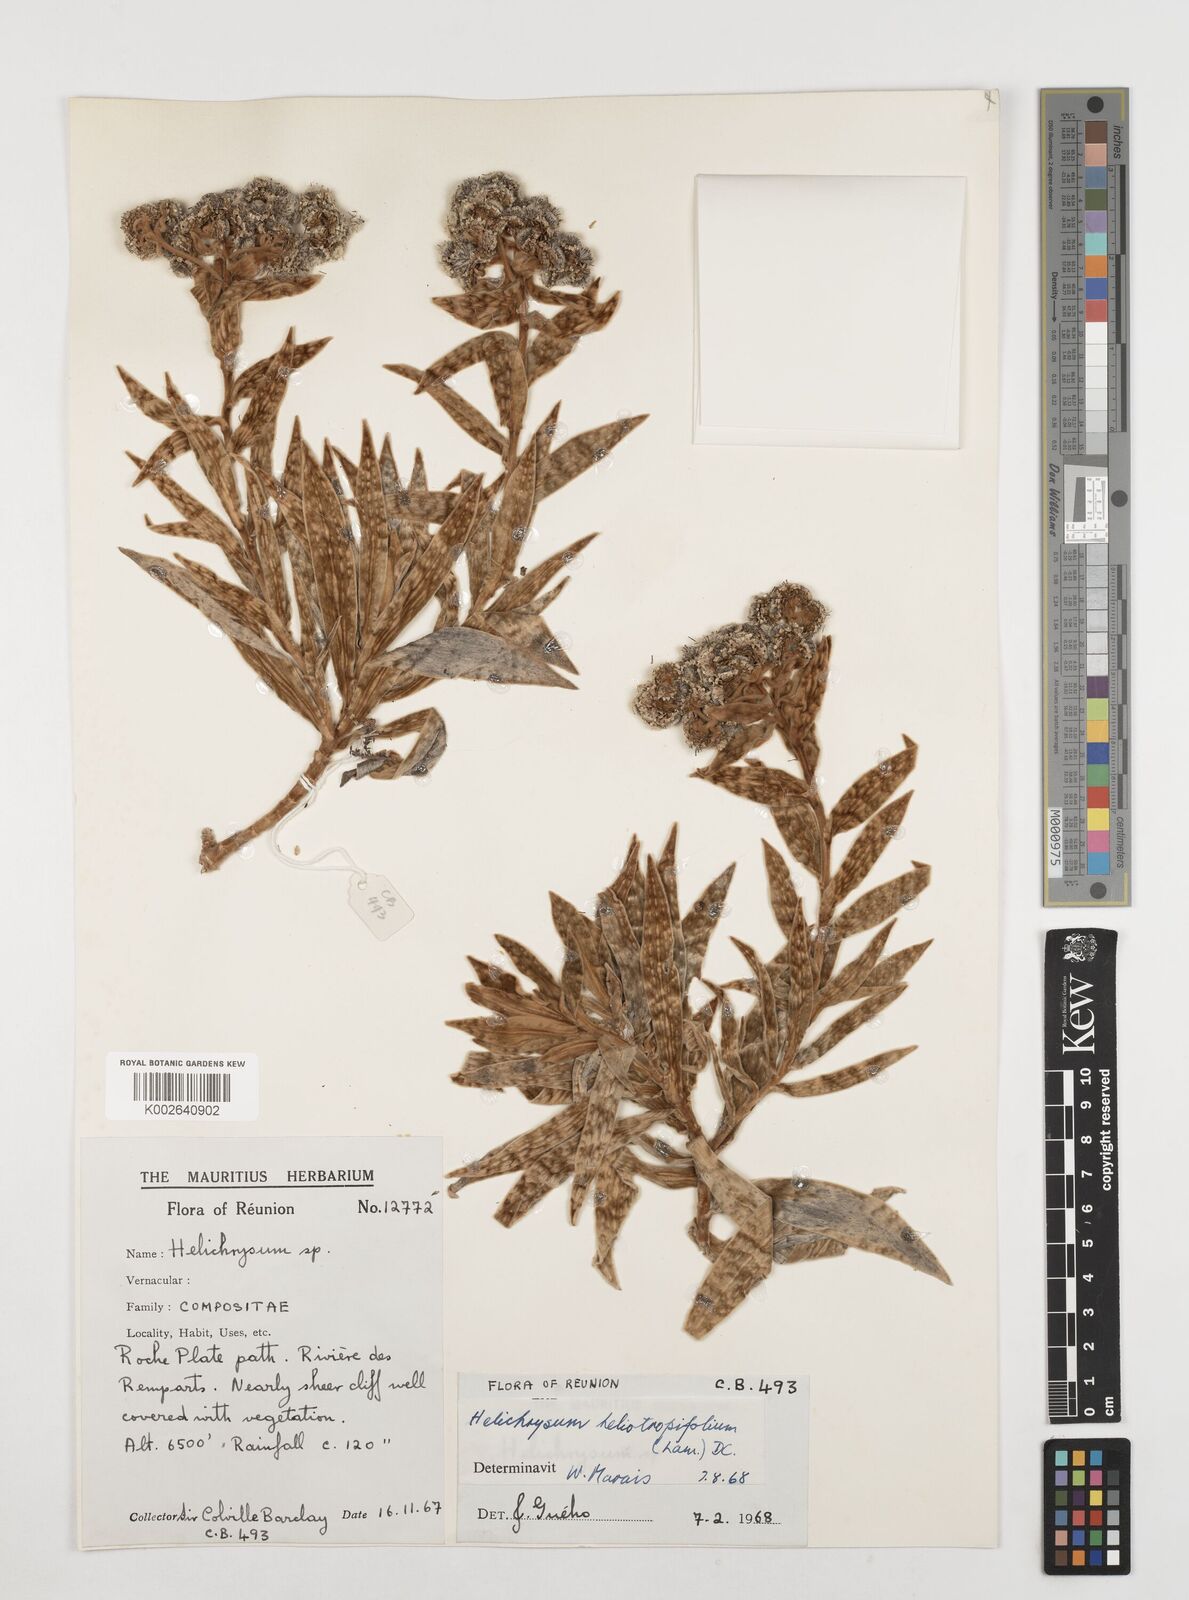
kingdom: Plantae
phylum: Tracheophyta
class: Magnoliopsida
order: Asterales
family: Asteraceae
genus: Helichrysum
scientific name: Helichrysum heliotropifolium
